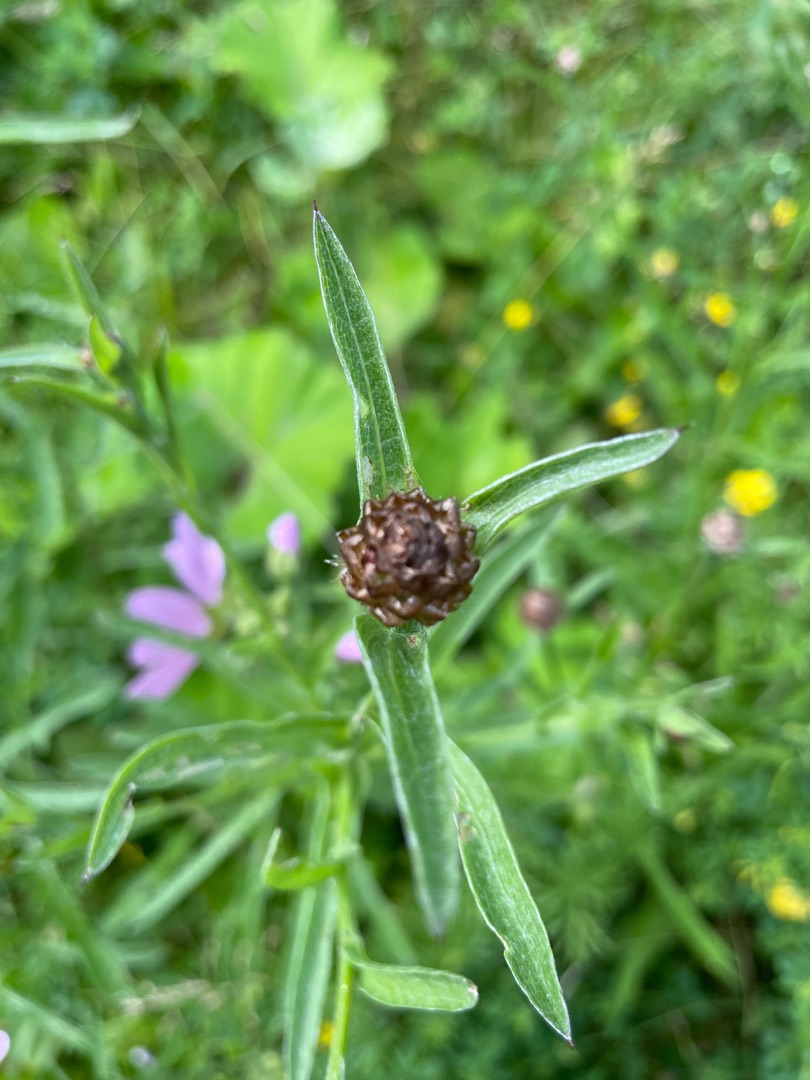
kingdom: Plantae
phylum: Tracheophyta
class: Magnoliopsida
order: Asterales
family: Asteraceae
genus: Centaurea
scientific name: Centaurea jacea
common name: Almindelig knopurt
